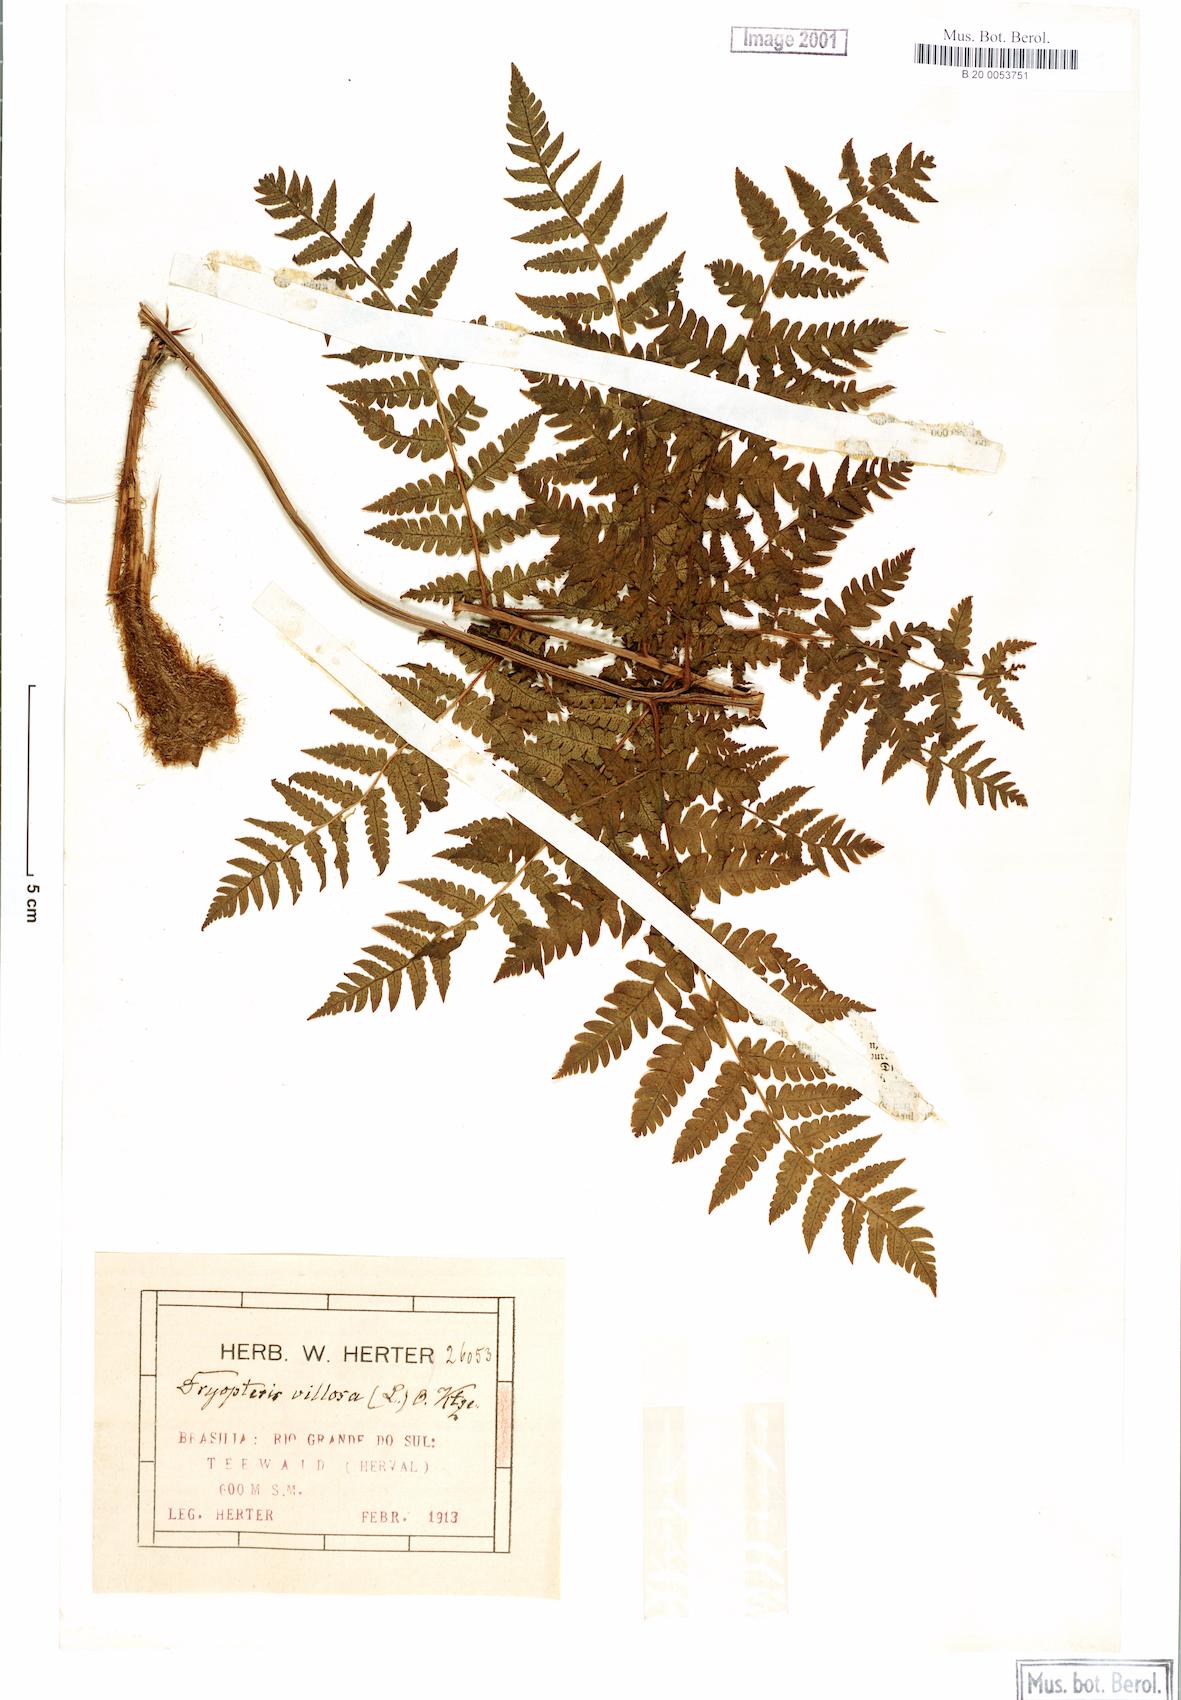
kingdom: Plantae
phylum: Tracheophyta
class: Polypodiopsida
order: Polypodiales
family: Dryopteridaceae
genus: Megalastrum
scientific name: Megalastrum villosum
